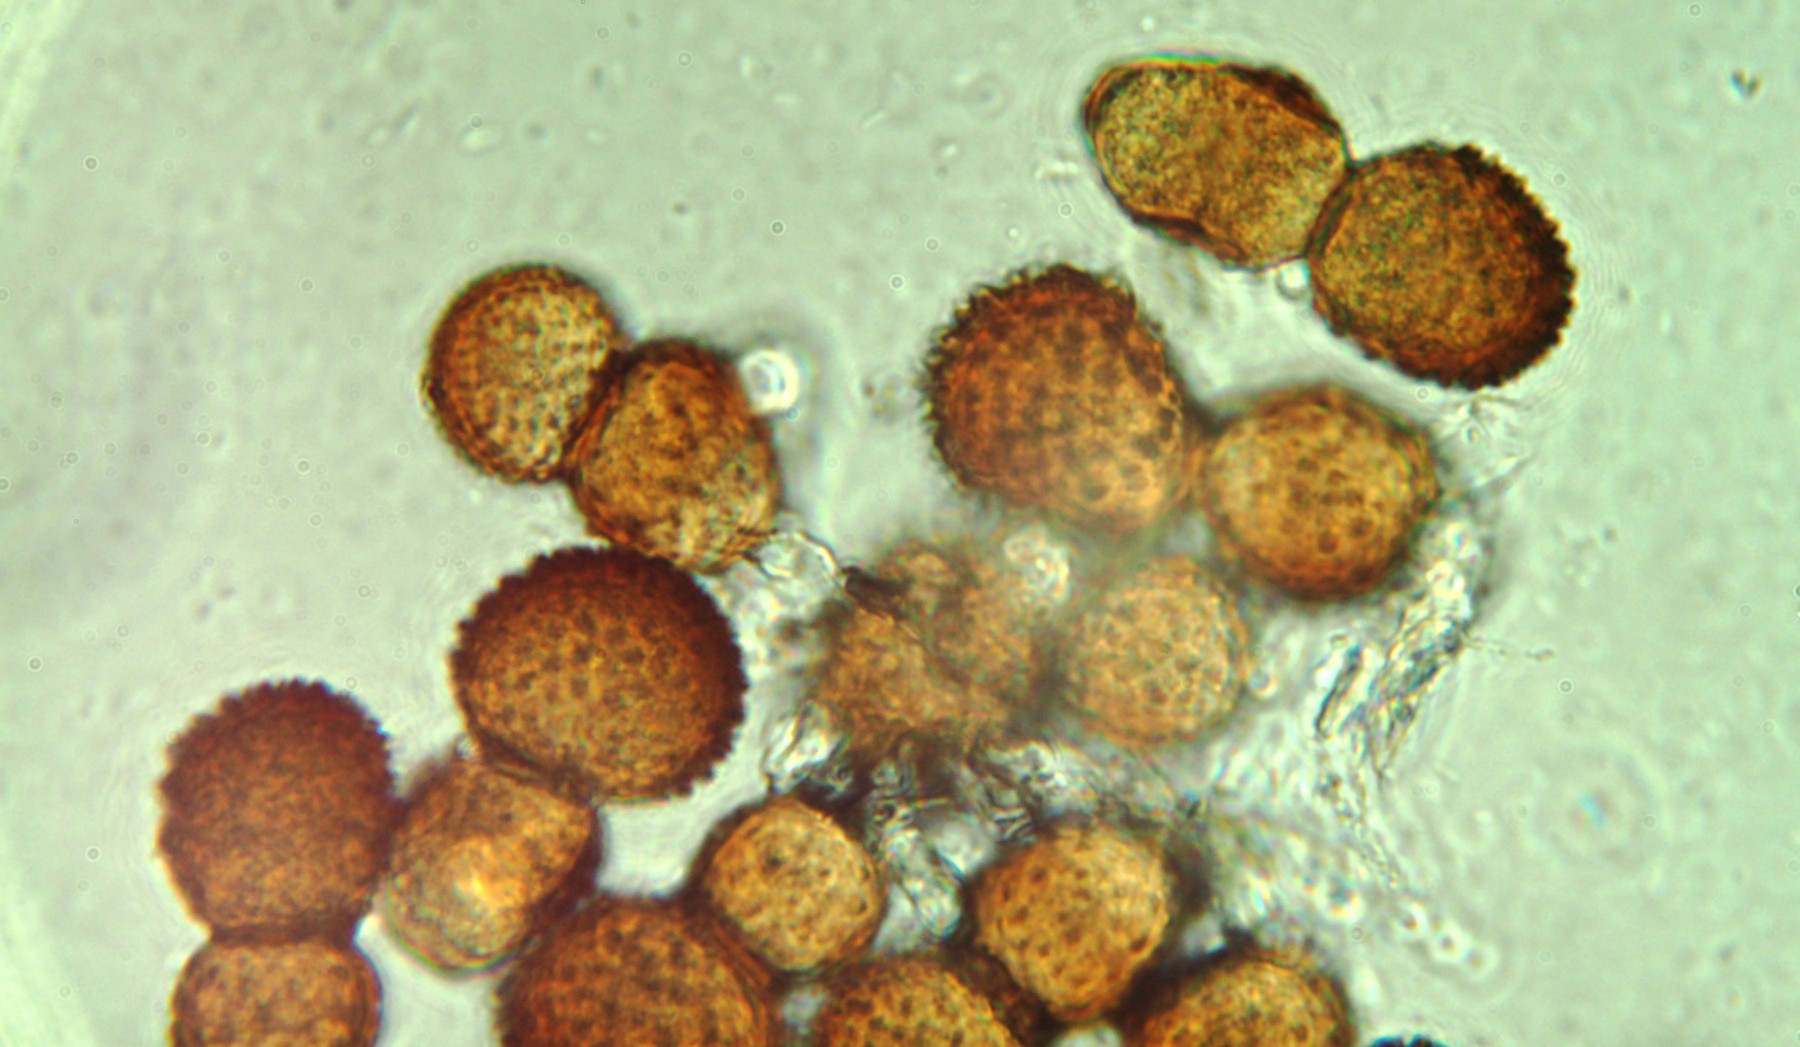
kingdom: Fungi
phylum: Basidiomycota
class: Pucciniomycetes
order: Pucciniales
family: Tranzscheliaceae
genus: Tranzschelia
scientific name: Tranzschelia pruni-spinosae
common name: Blackthorn rust
